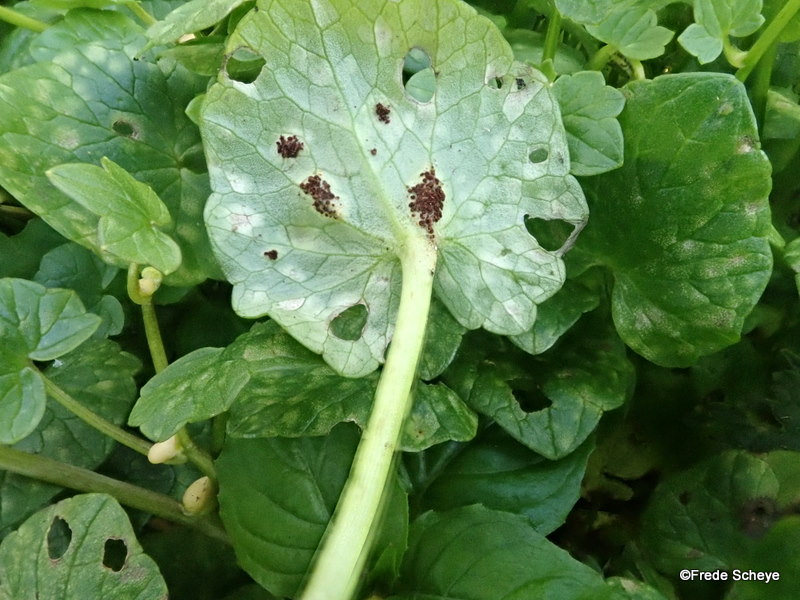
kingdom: Fungi
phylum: Basidiomycota
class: Pucciniomycetes
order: Pucciniales
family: Pucciniaceae
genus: Uromyces
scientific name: Uromyces ficariae
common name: vorterod-encellerust
